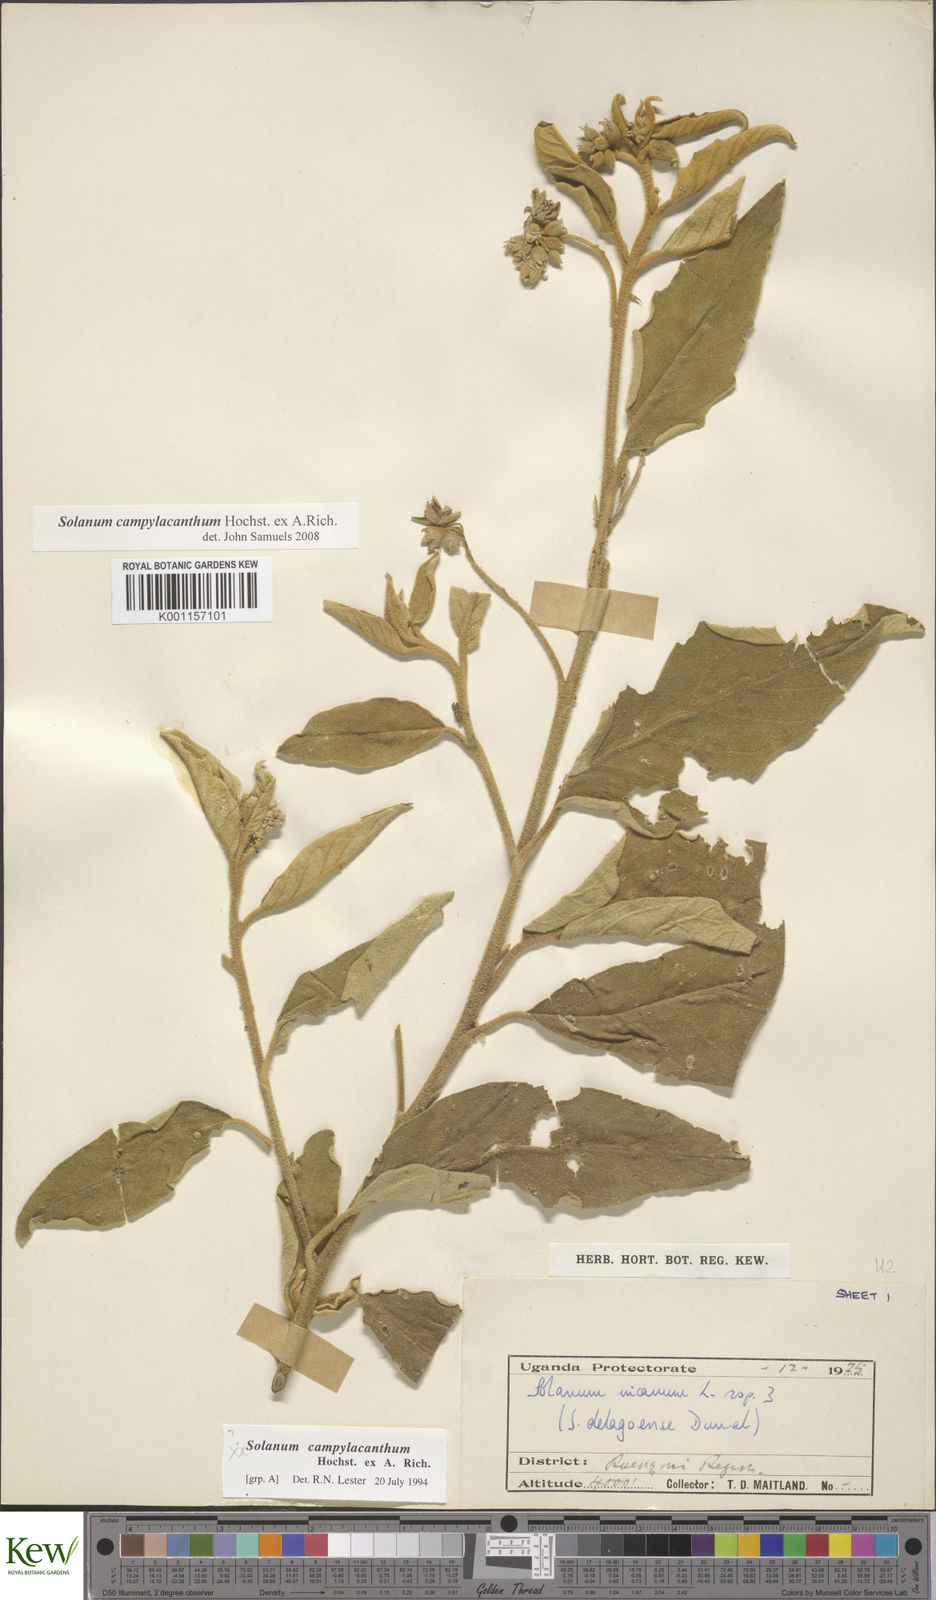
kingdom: Plantae
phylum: Tracheophyta
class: Magnoliopsida
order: Solanales
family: Solanaceae
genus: Solanum
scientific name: Solanum campylacanthum
